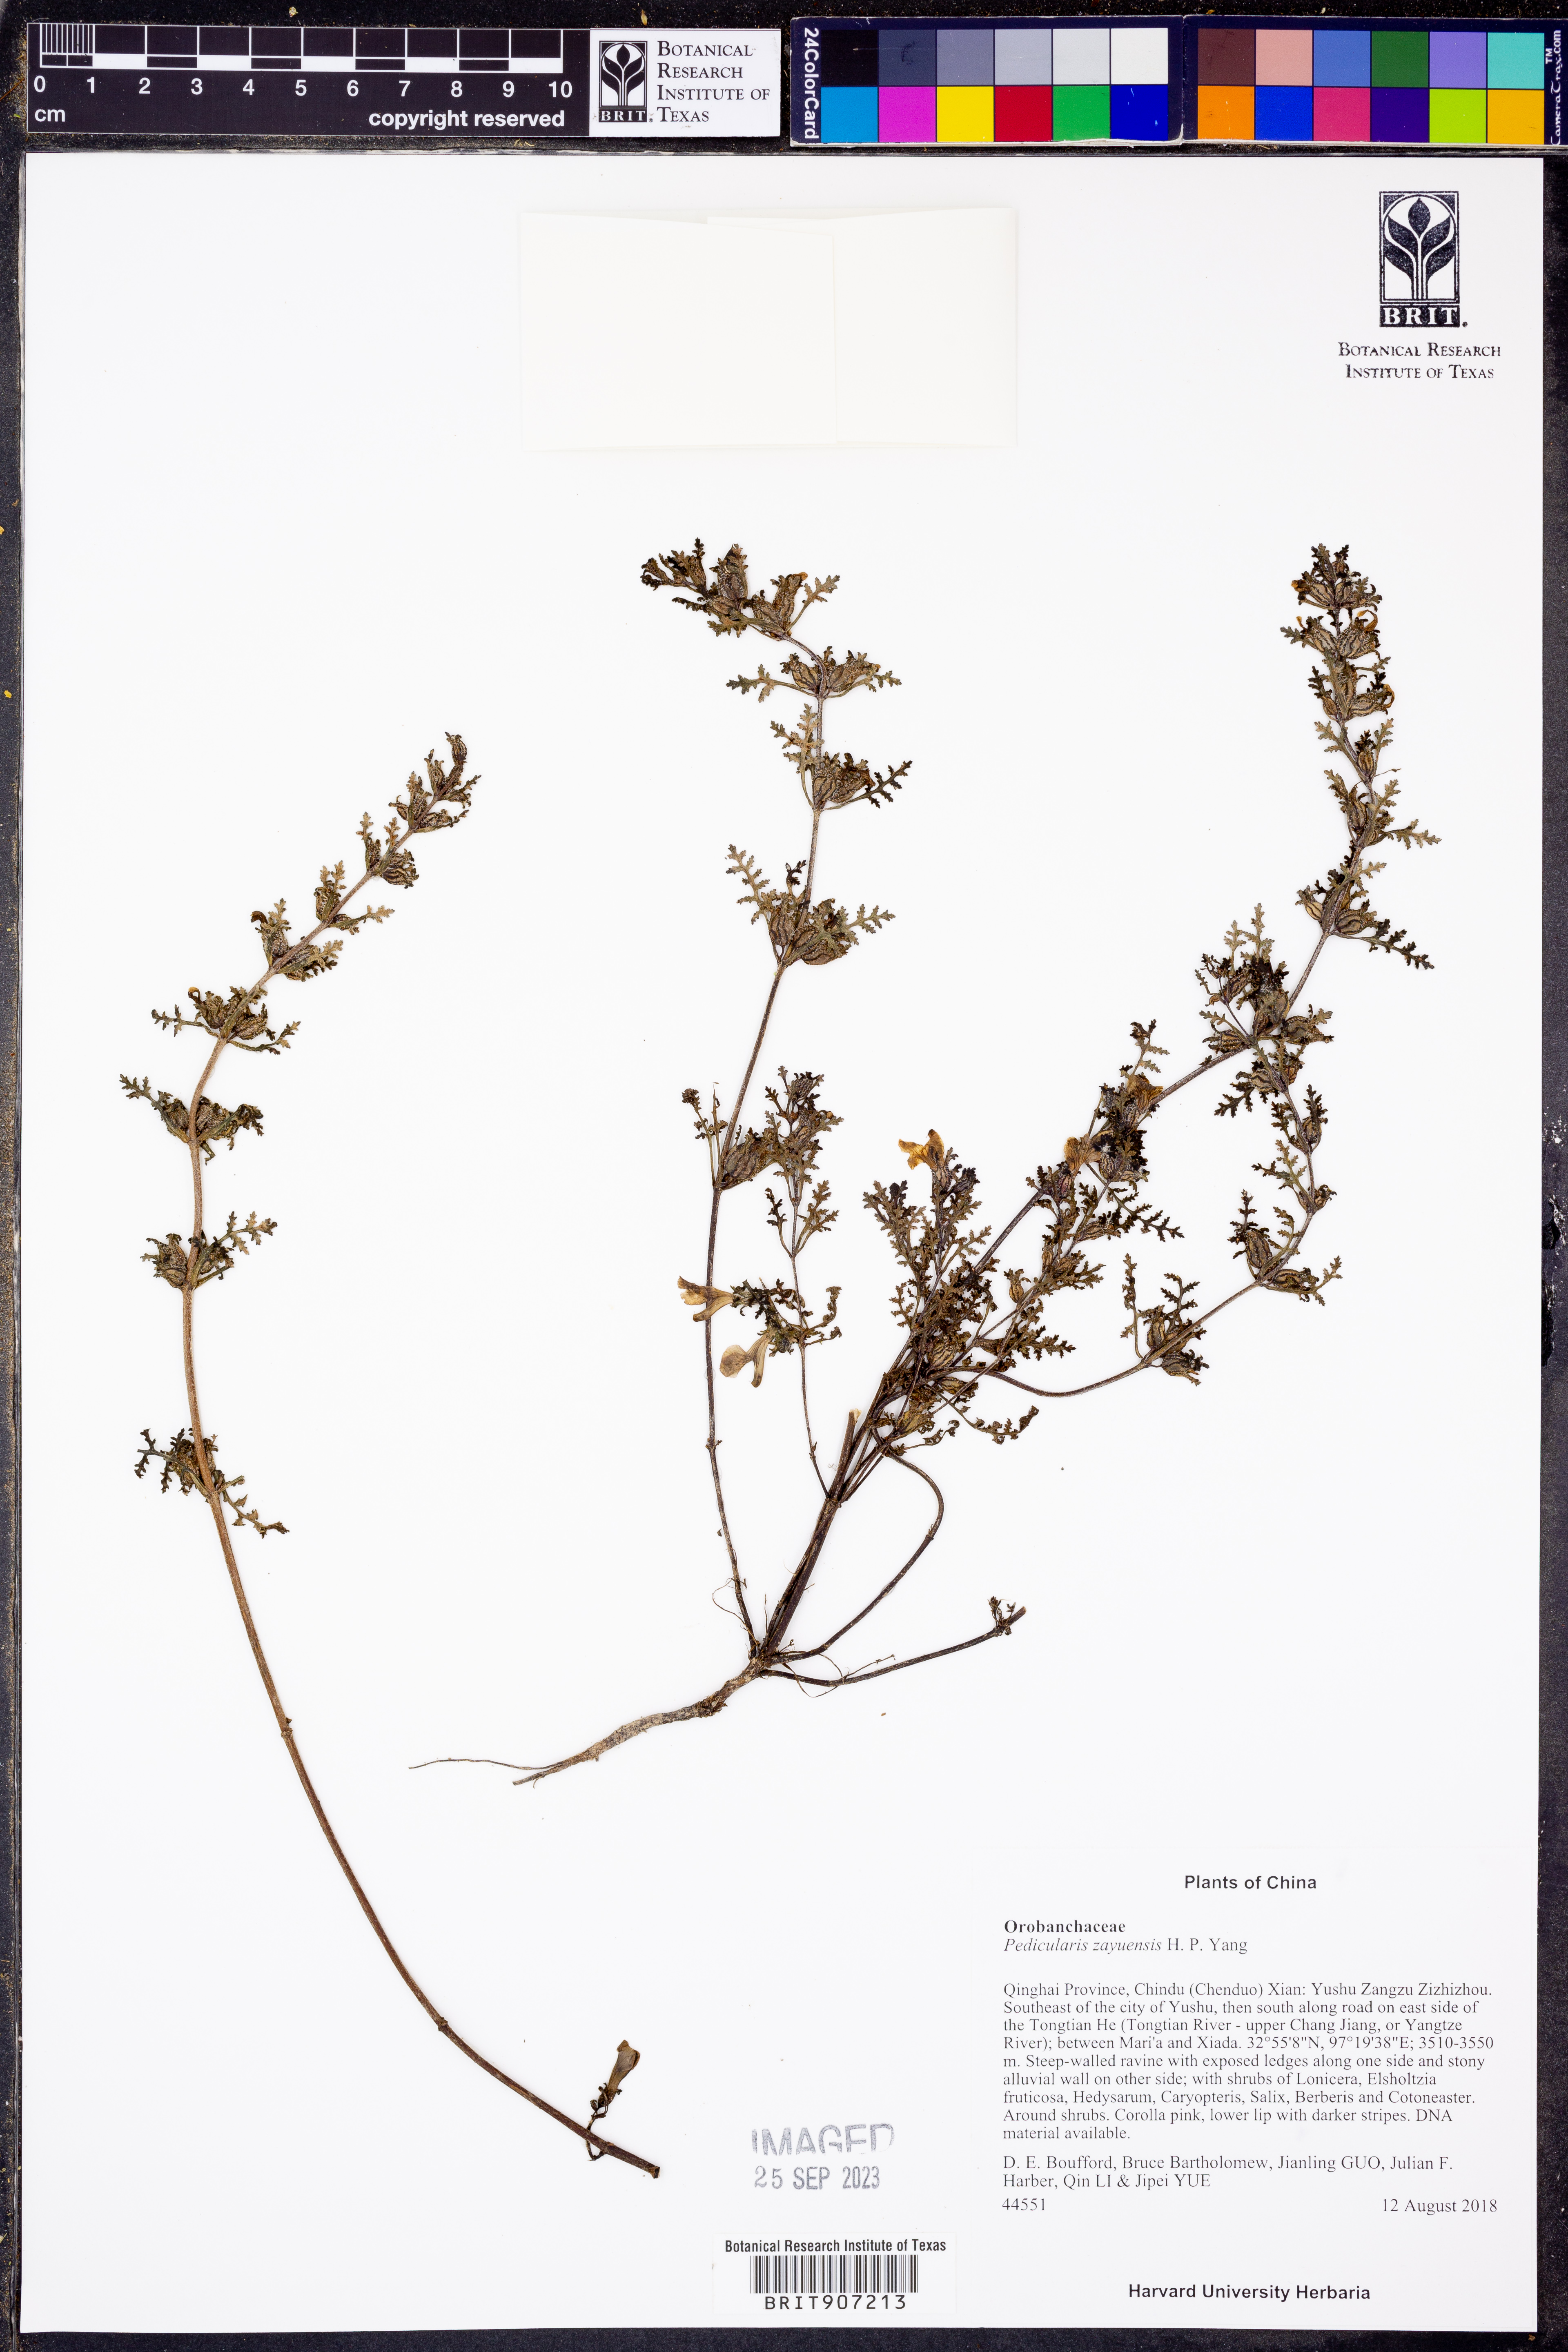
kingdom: Plantae
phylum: Tracheophyta
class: Magnoliopsida
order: Lamiales
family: Orobanchaceae
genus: Pedicularis
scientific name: Pedicularis zayuensis
